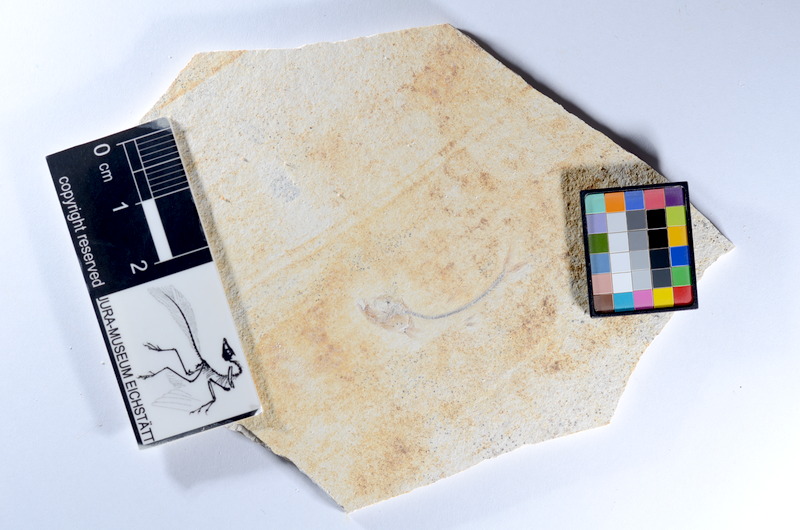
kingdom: Animalia
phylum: Chordata
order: Salmoniformes
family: Orthogonikleithridae
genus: Orthogonikleithrus
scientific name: Orthogonikleithrus hoelli
